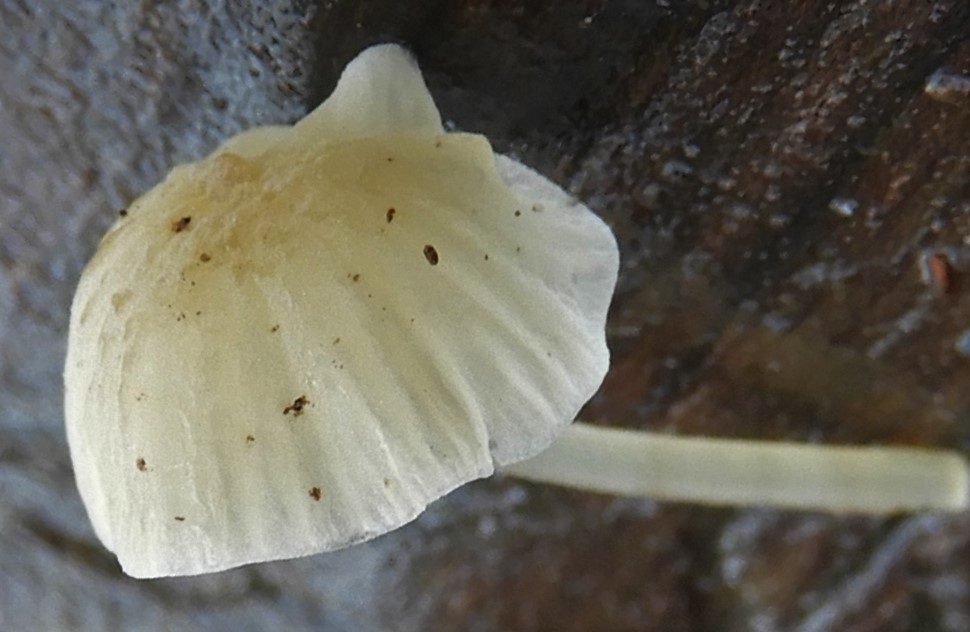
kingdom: Fungi
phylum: Basidiomycota
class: Agaricomycetes
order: Agaricales
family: Porotheleaceae
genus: Phloeomana
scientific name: Phloeomana speirea
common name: kvist-huesvamp
